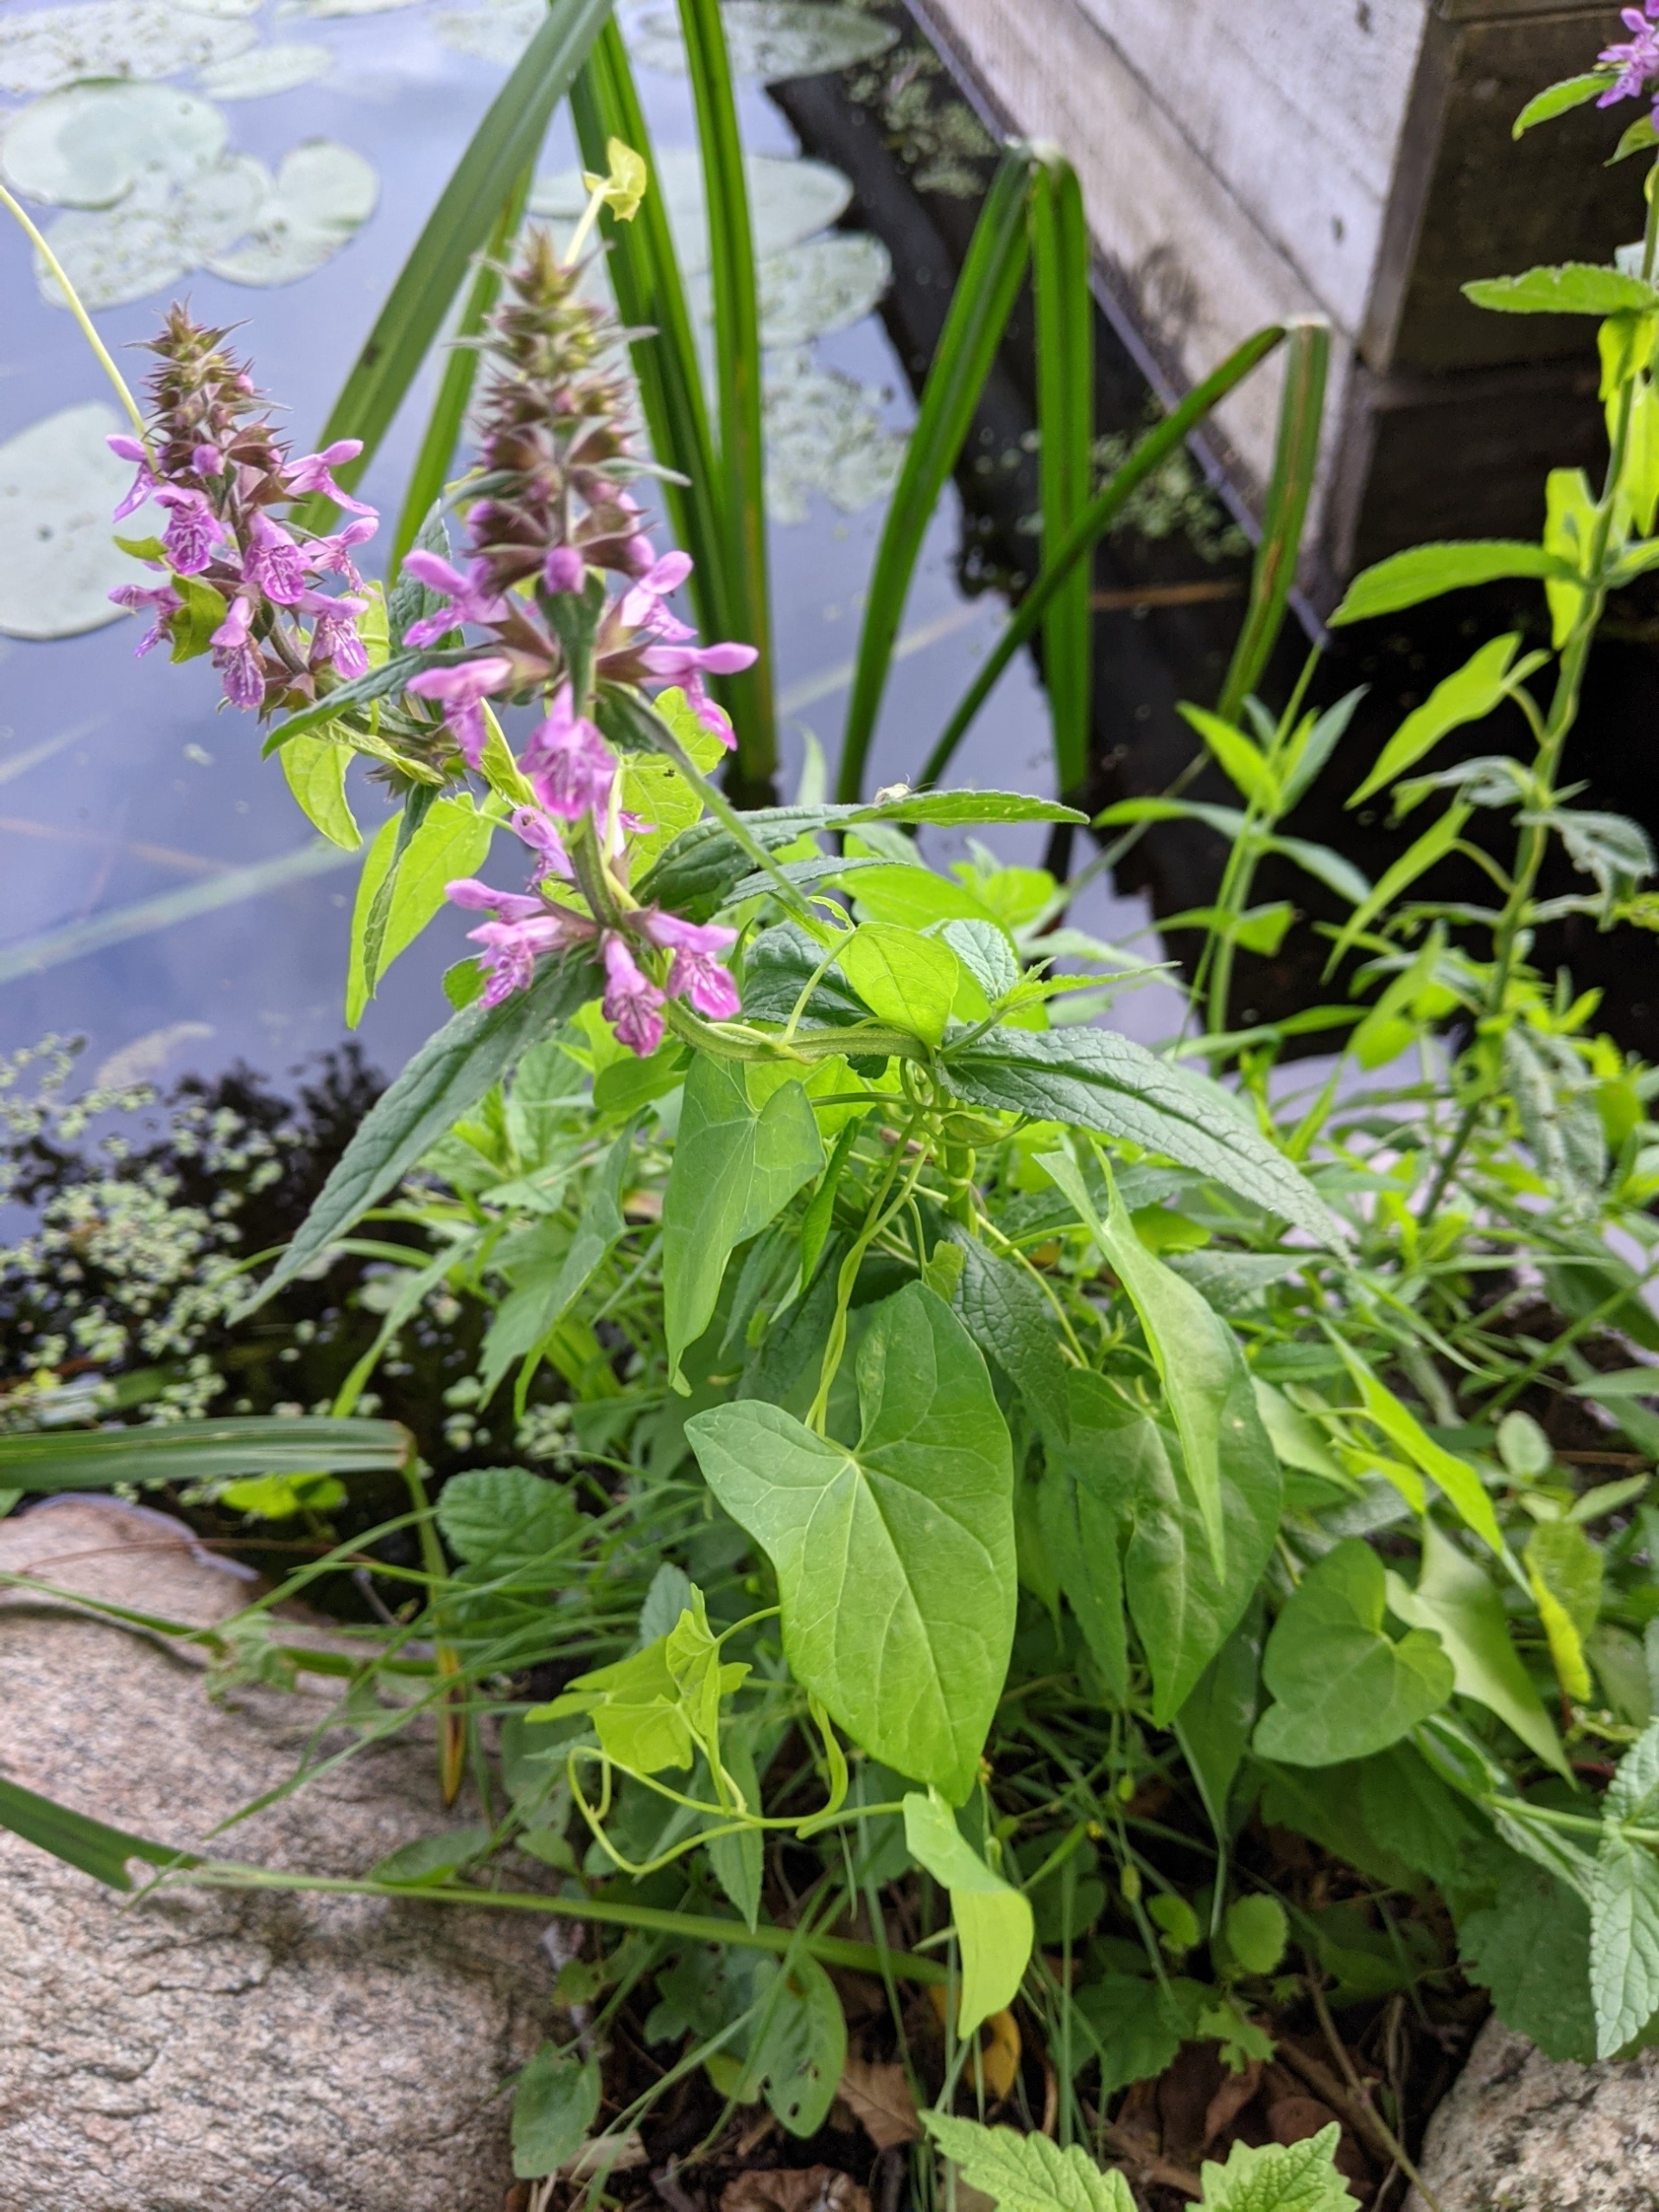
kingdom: Plantae
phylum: Tracheophyta
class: Magnoliopsida
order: Lamiales
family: Lamiaceae
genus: Stachys
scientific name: Stachys palustris
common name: Kær-galtetand
